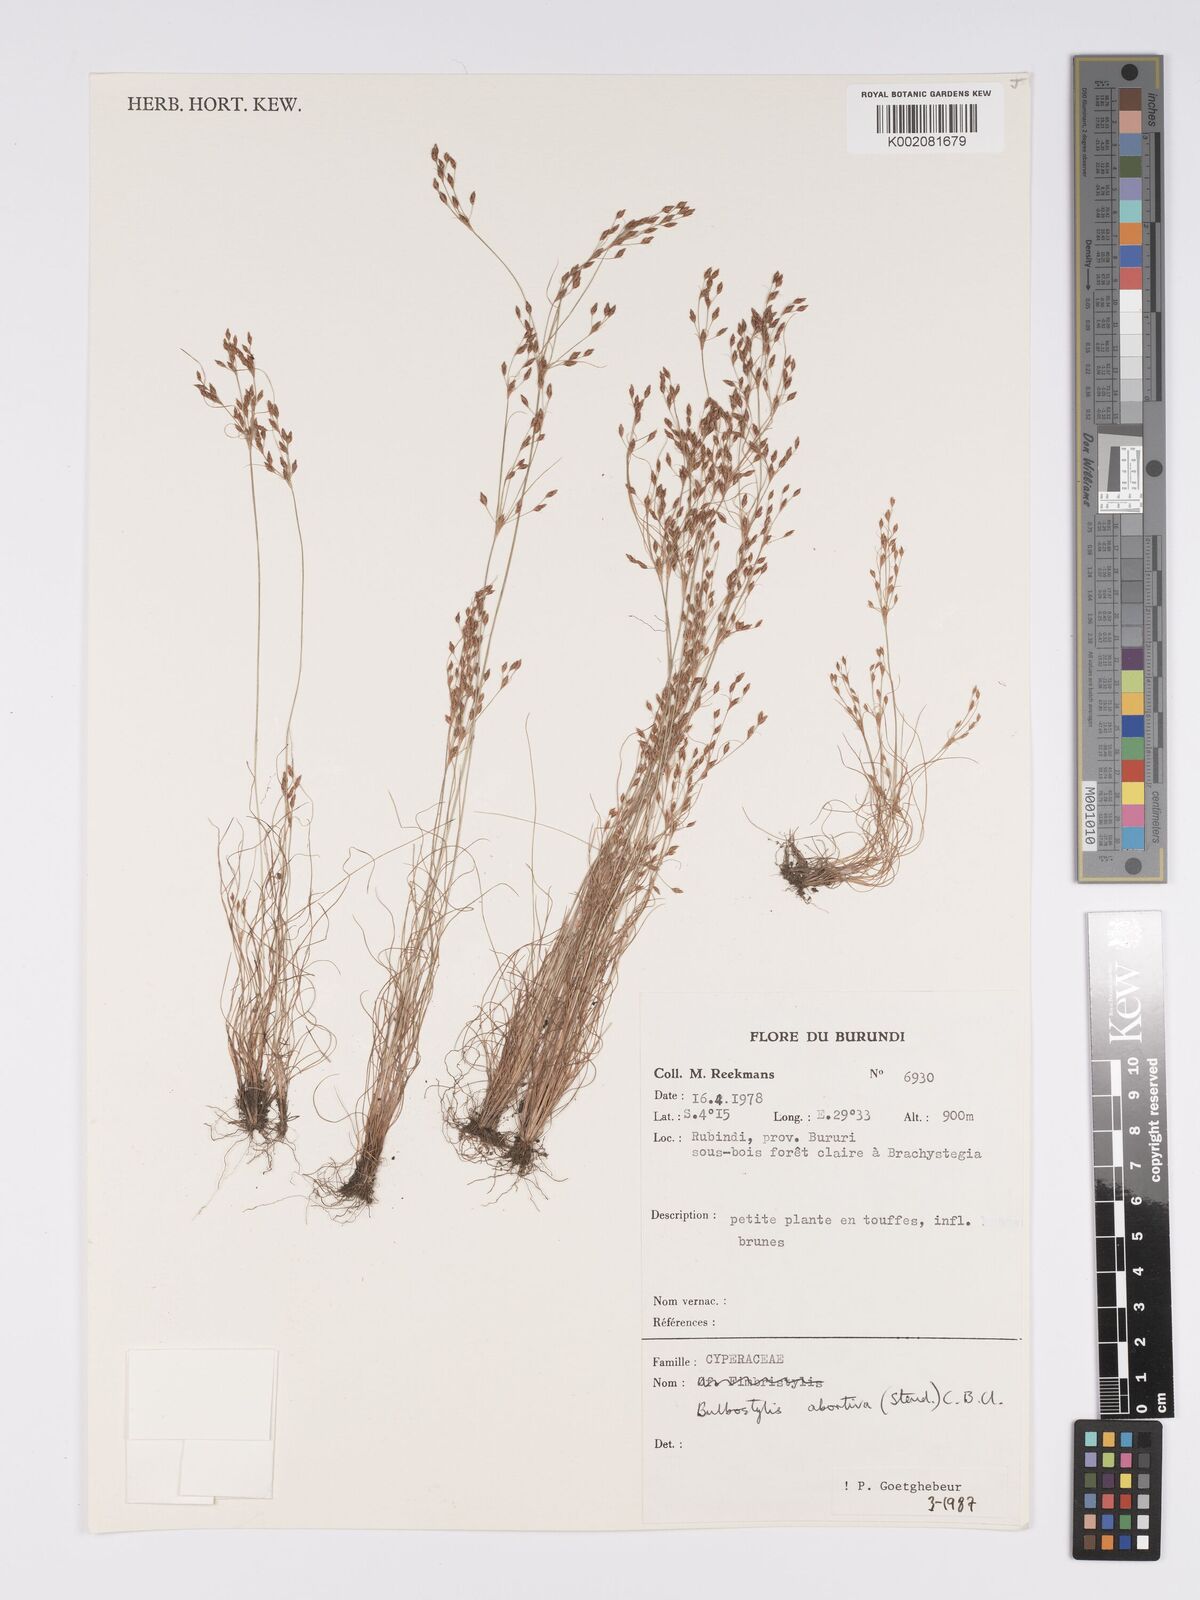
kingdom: Plantae
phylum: Tracheophyta
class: Liliopsida
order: Poales
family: Cyperaceae
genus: Bulbostylis
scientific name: Bulbostylis abortiva
